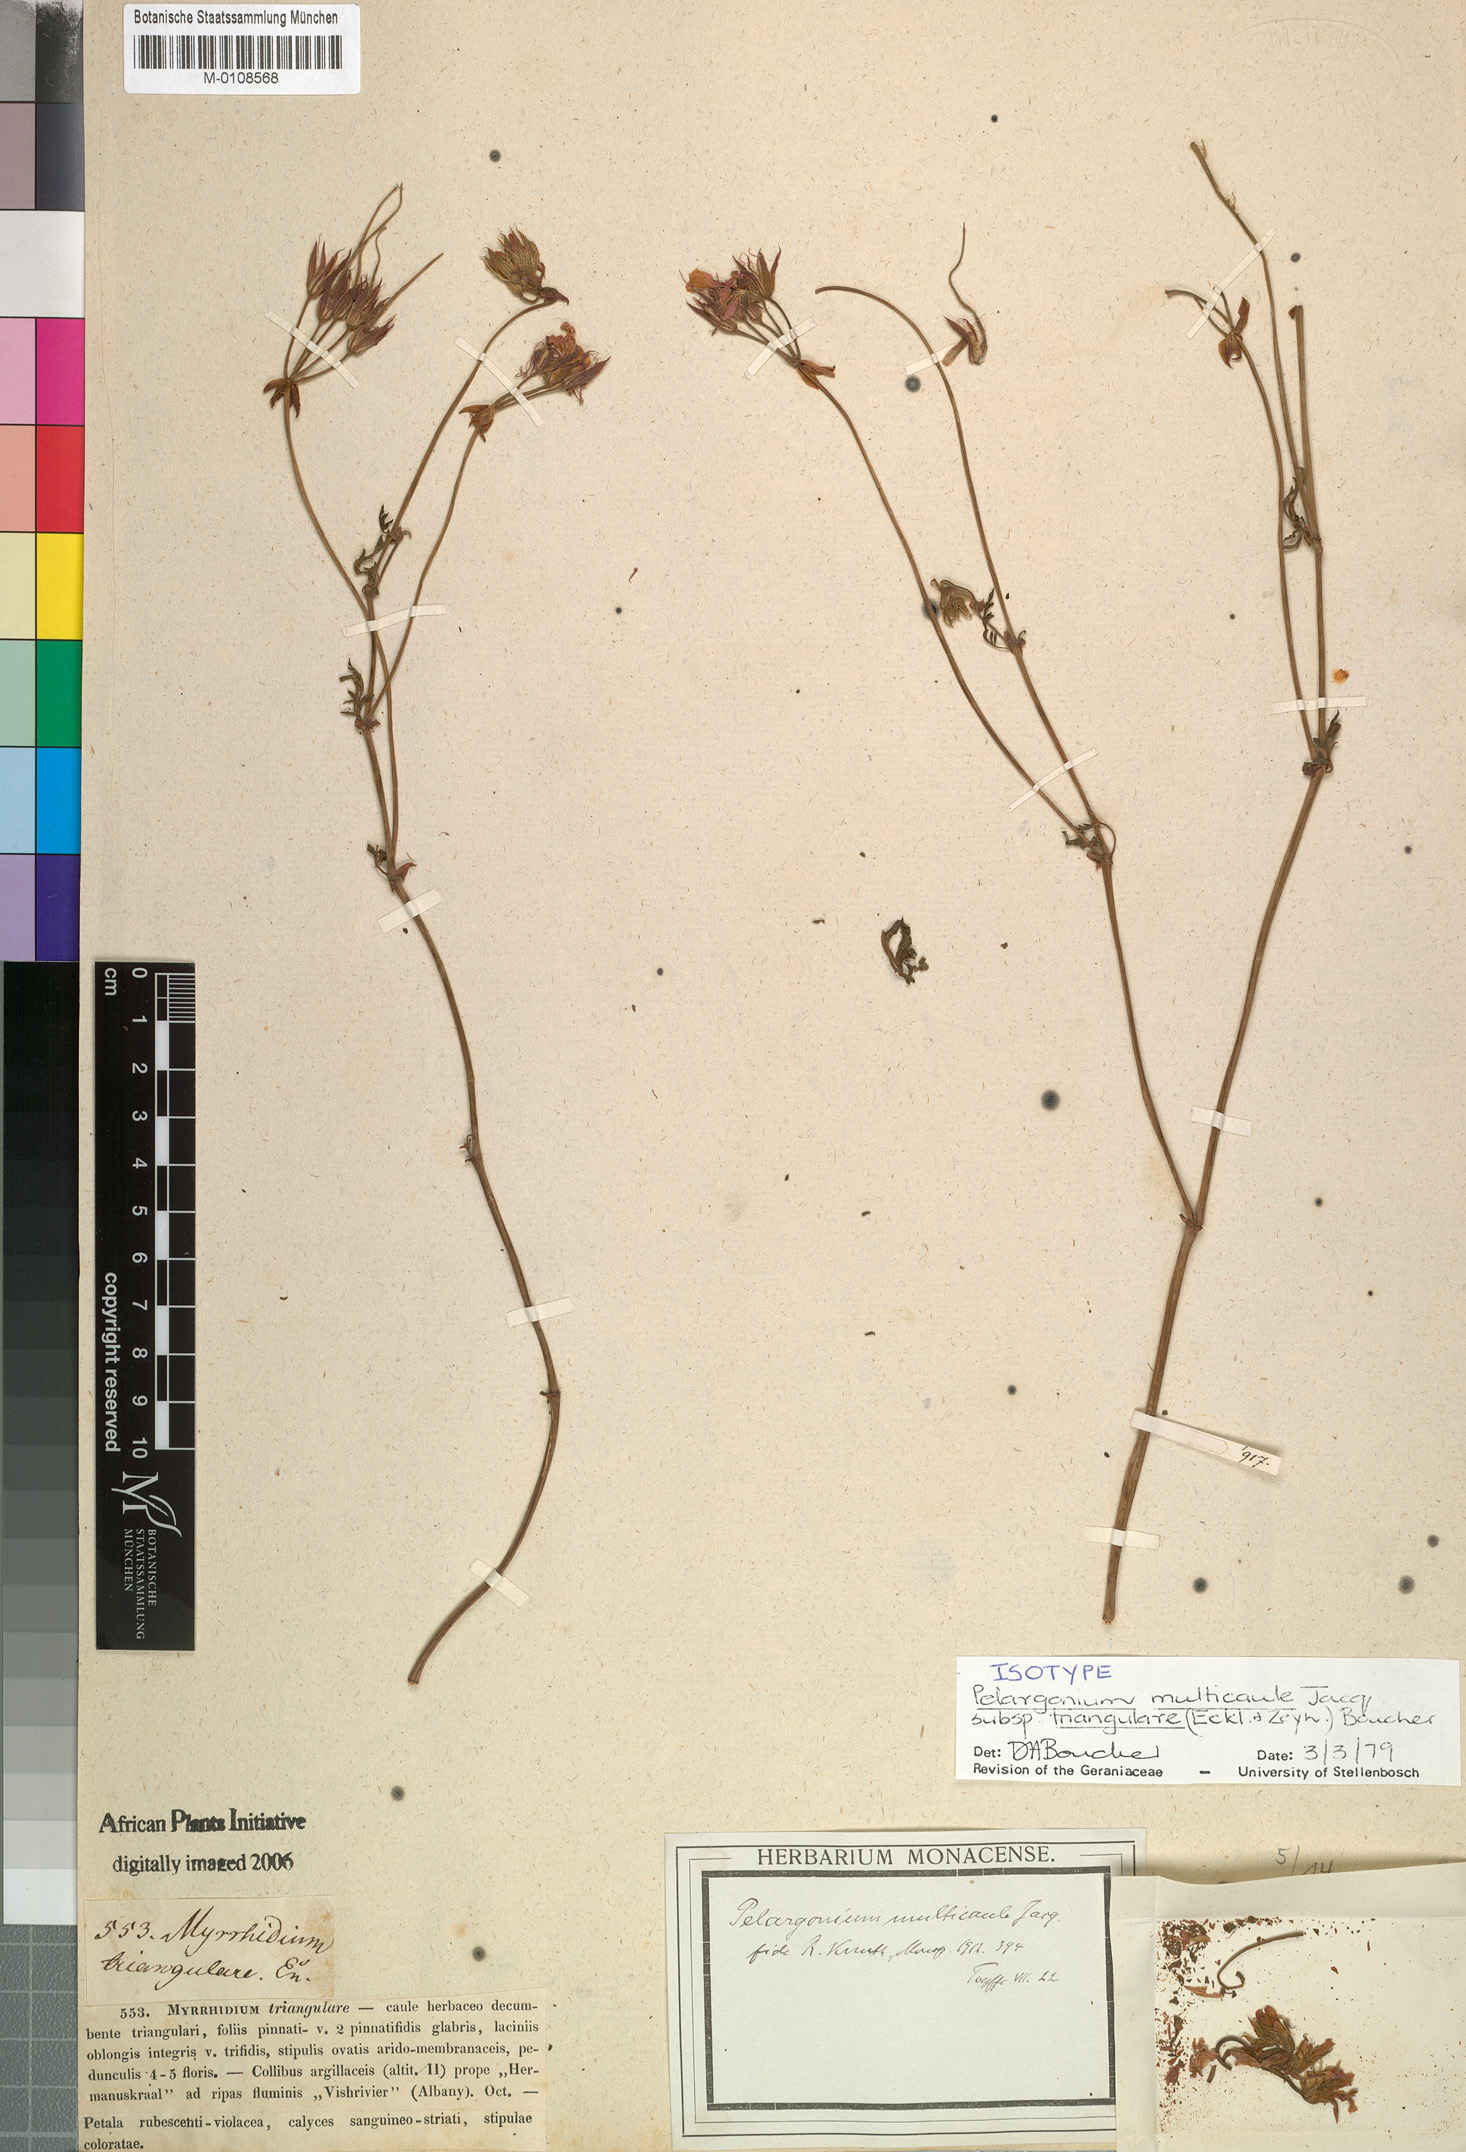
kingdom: Plantae
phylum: Tracheophyta
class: Magnoliopsida
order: Geraniales
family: Geraniaceae
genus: Pelargonium
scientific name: Pelargonium multicaule
